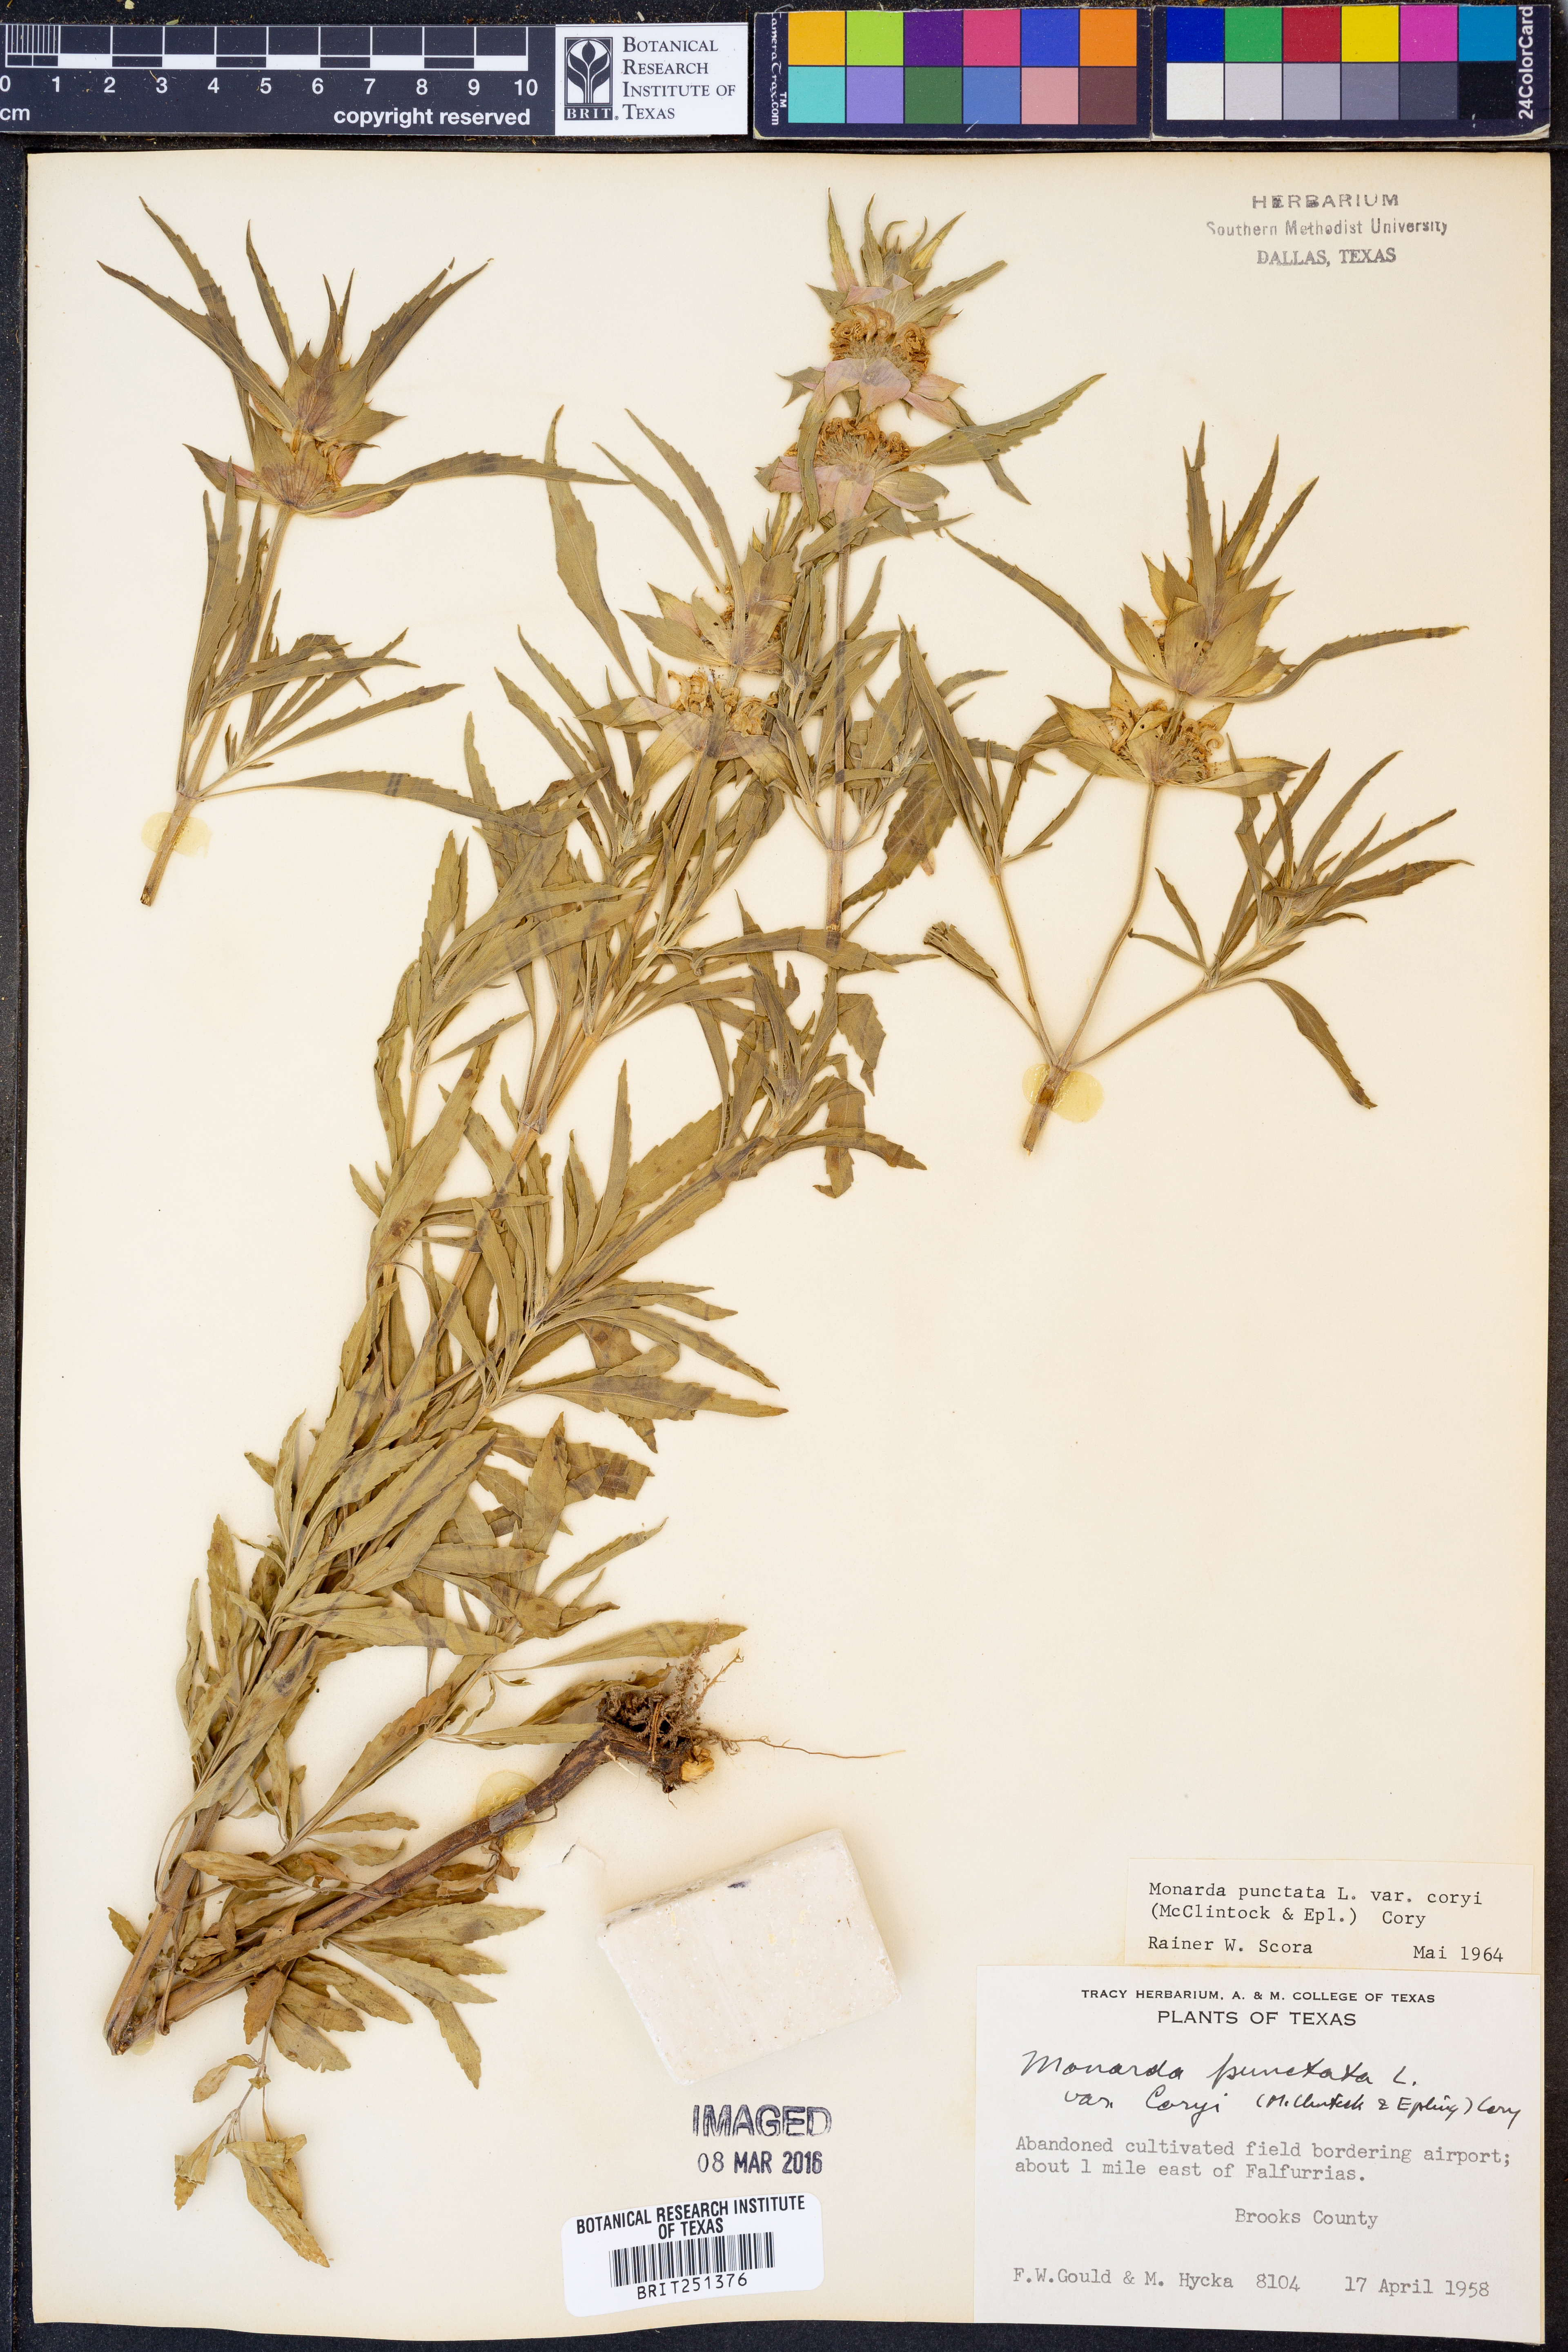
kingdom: Plantae
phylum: Tracheophyta
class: Magnoliopsida
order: Lamiales
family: Lamiaceae
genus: Monarda
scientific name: Monarda punctata
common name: Dotted monarda
